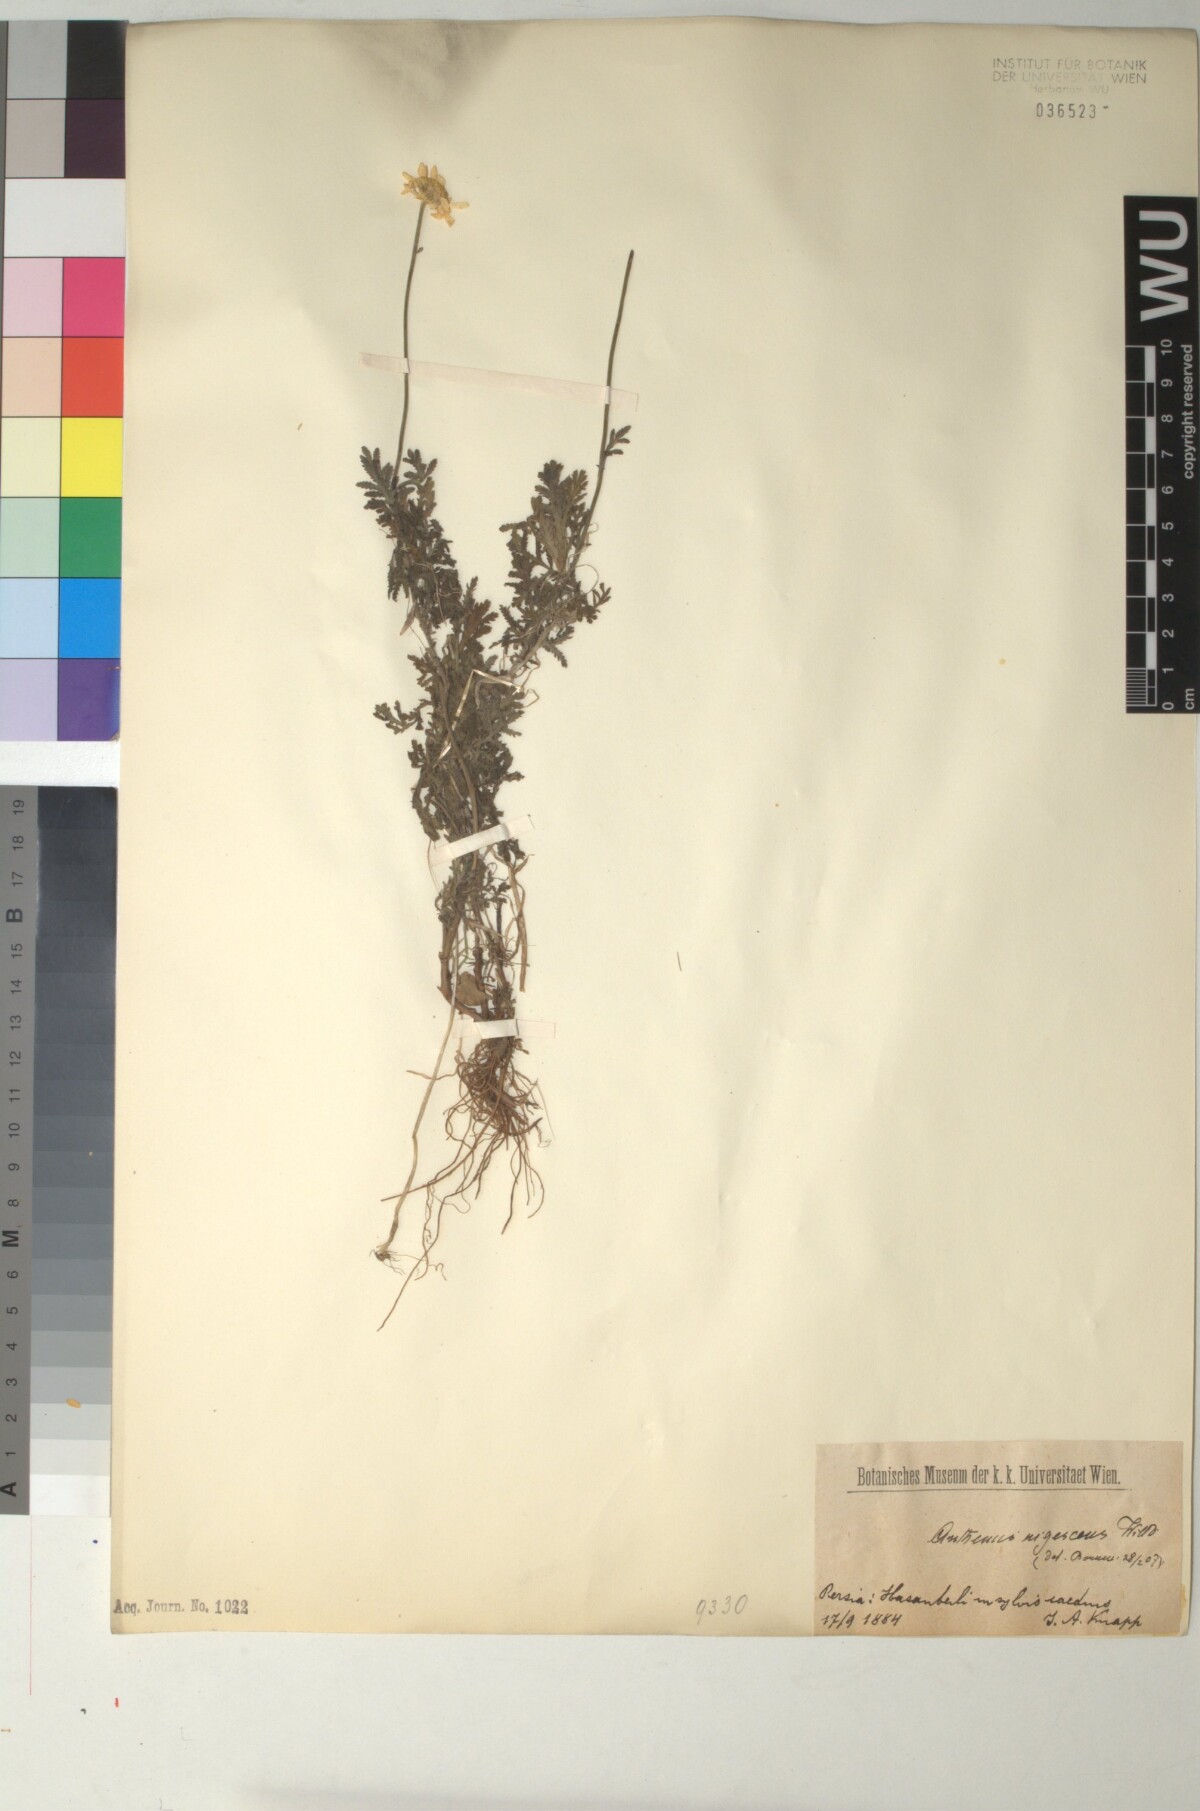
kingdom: Plantae
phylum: Tracheophyta
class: Magnoliopsida
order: Asterales
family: Asteraceae
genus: Cota
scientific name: Cota triumfetti
